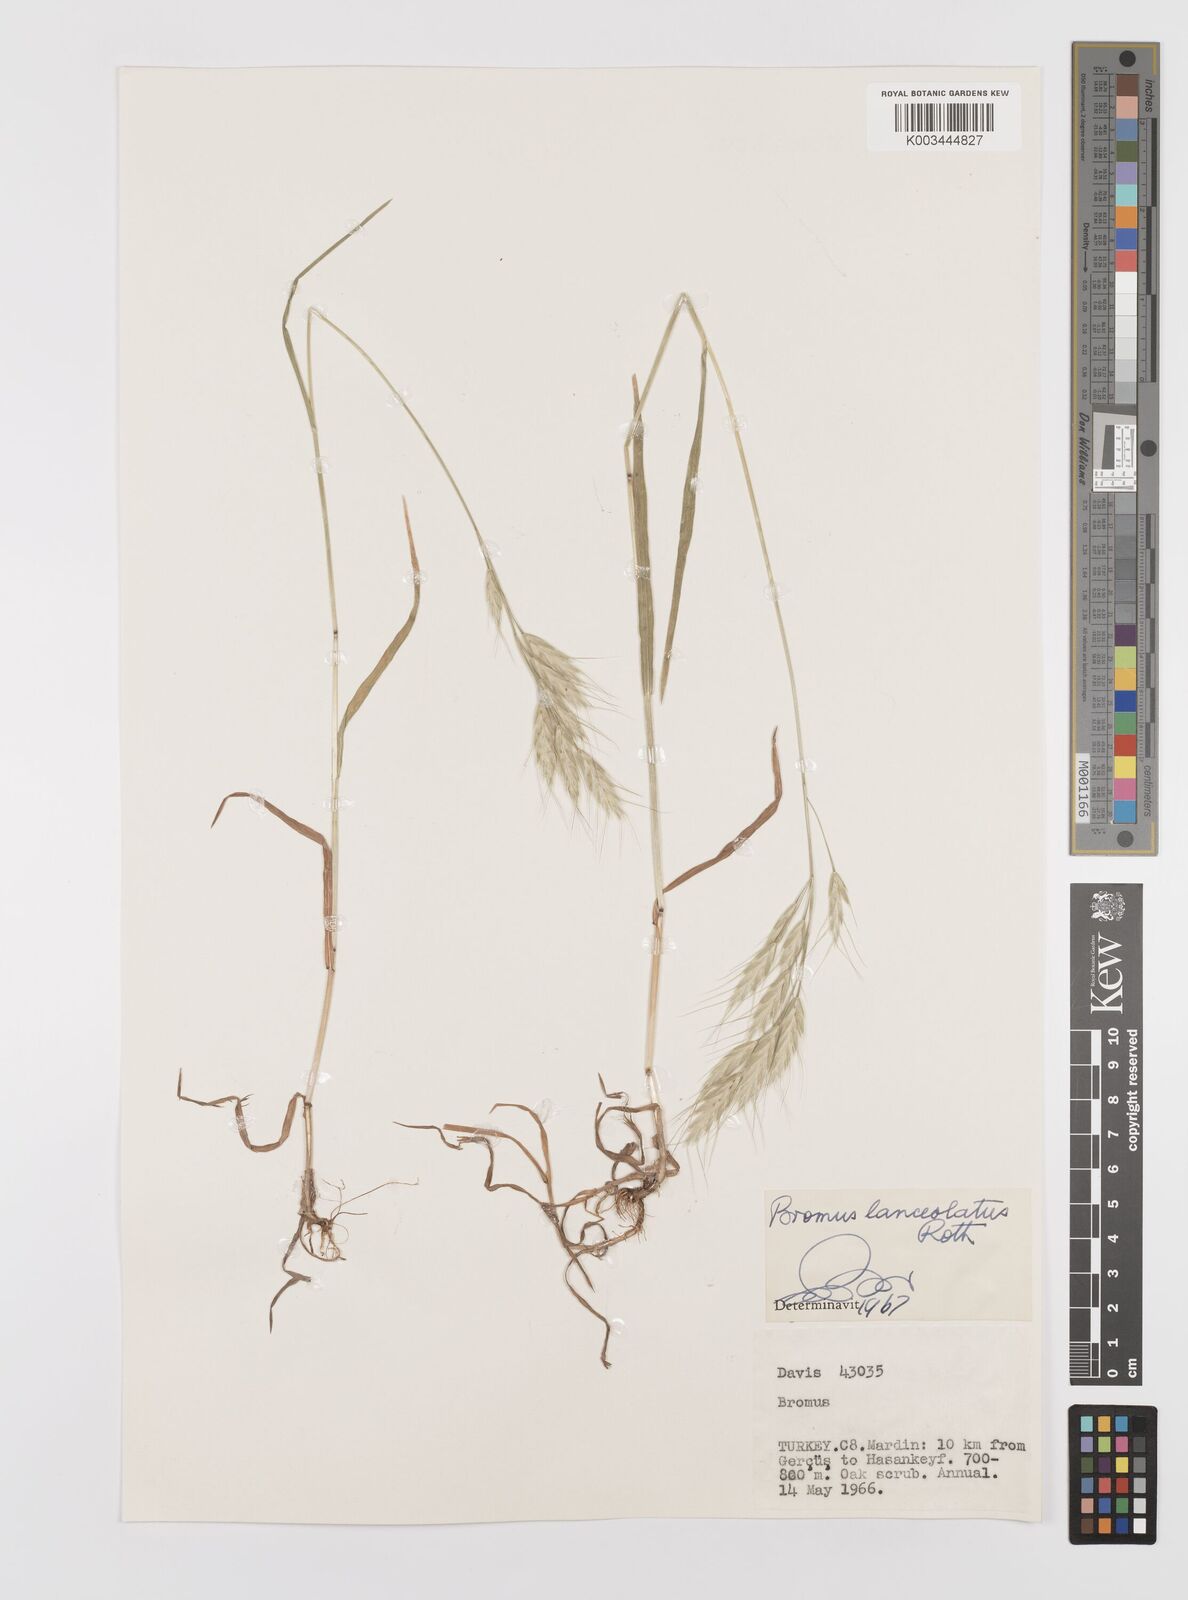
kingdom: Plantae
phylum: Tracheophyta
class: Liliopsida
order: Poales
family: Poaceae
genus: Bromus
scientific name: Bromus lanceolatus
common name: Mediterranean brome
